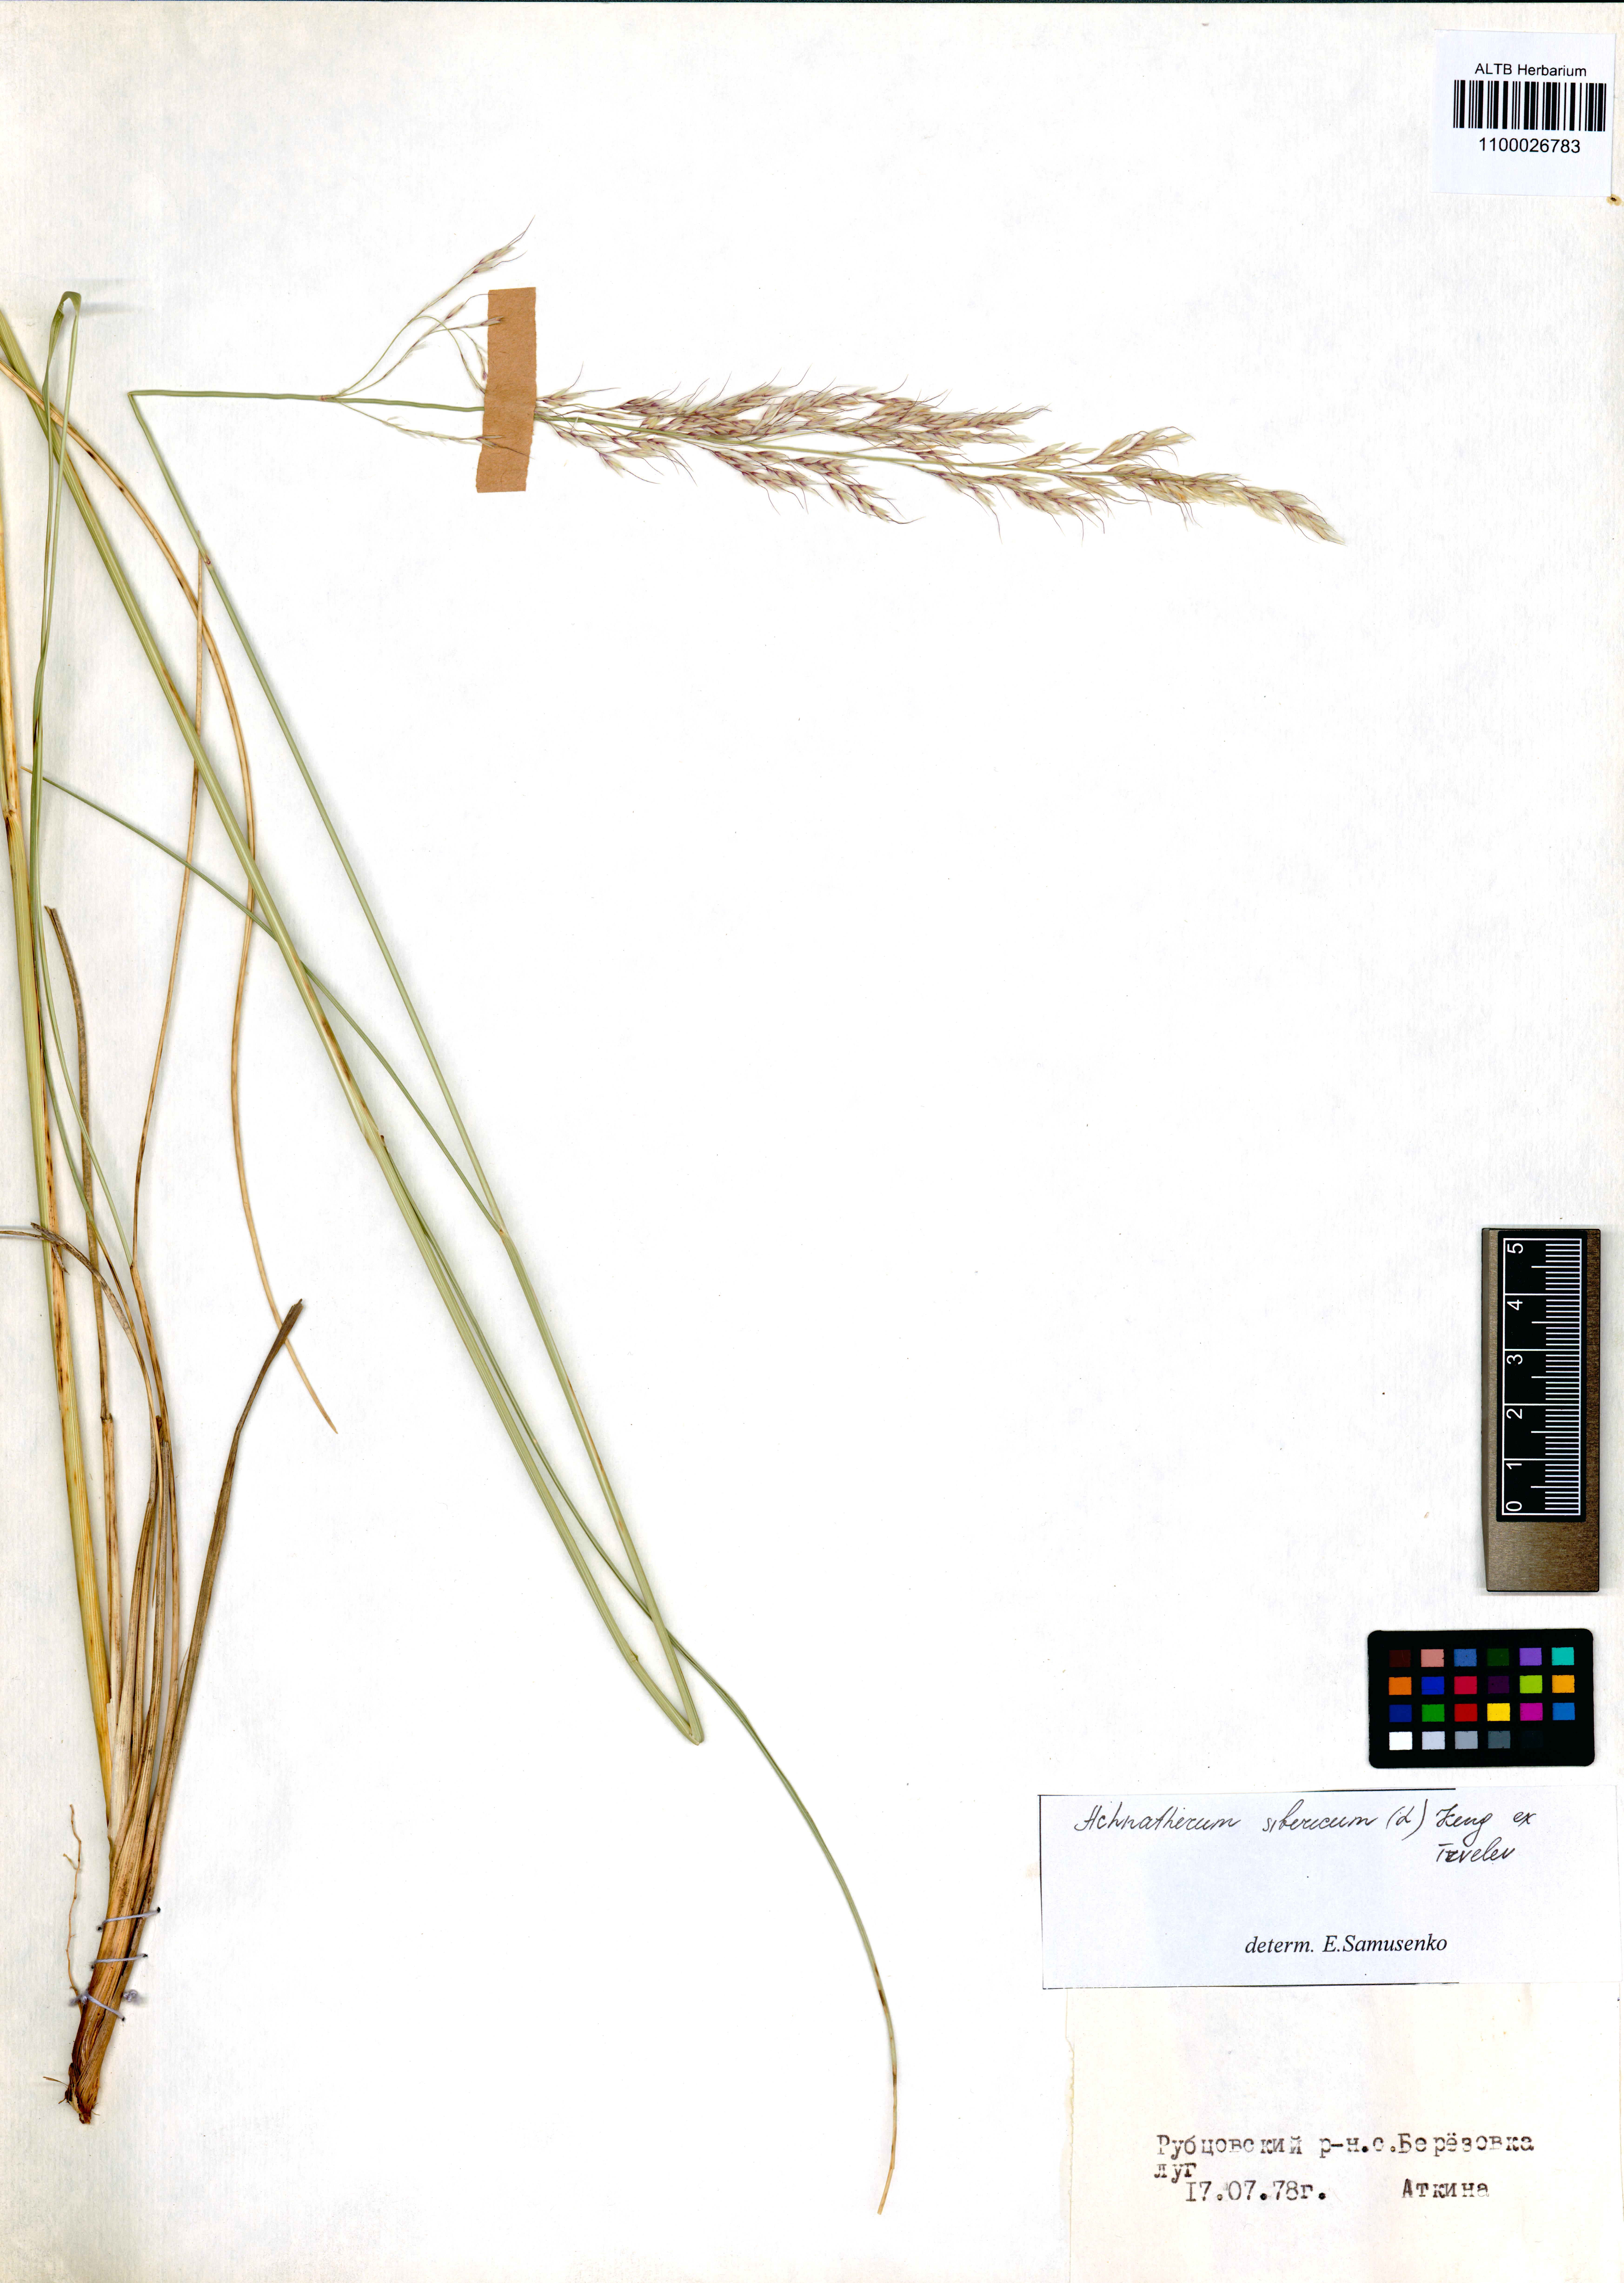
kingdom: Plantae
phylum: Tracheophyta
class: Liliopsida
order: Poales
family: Poaceae
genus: Neotrinia
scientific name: Neotrinia splendens
